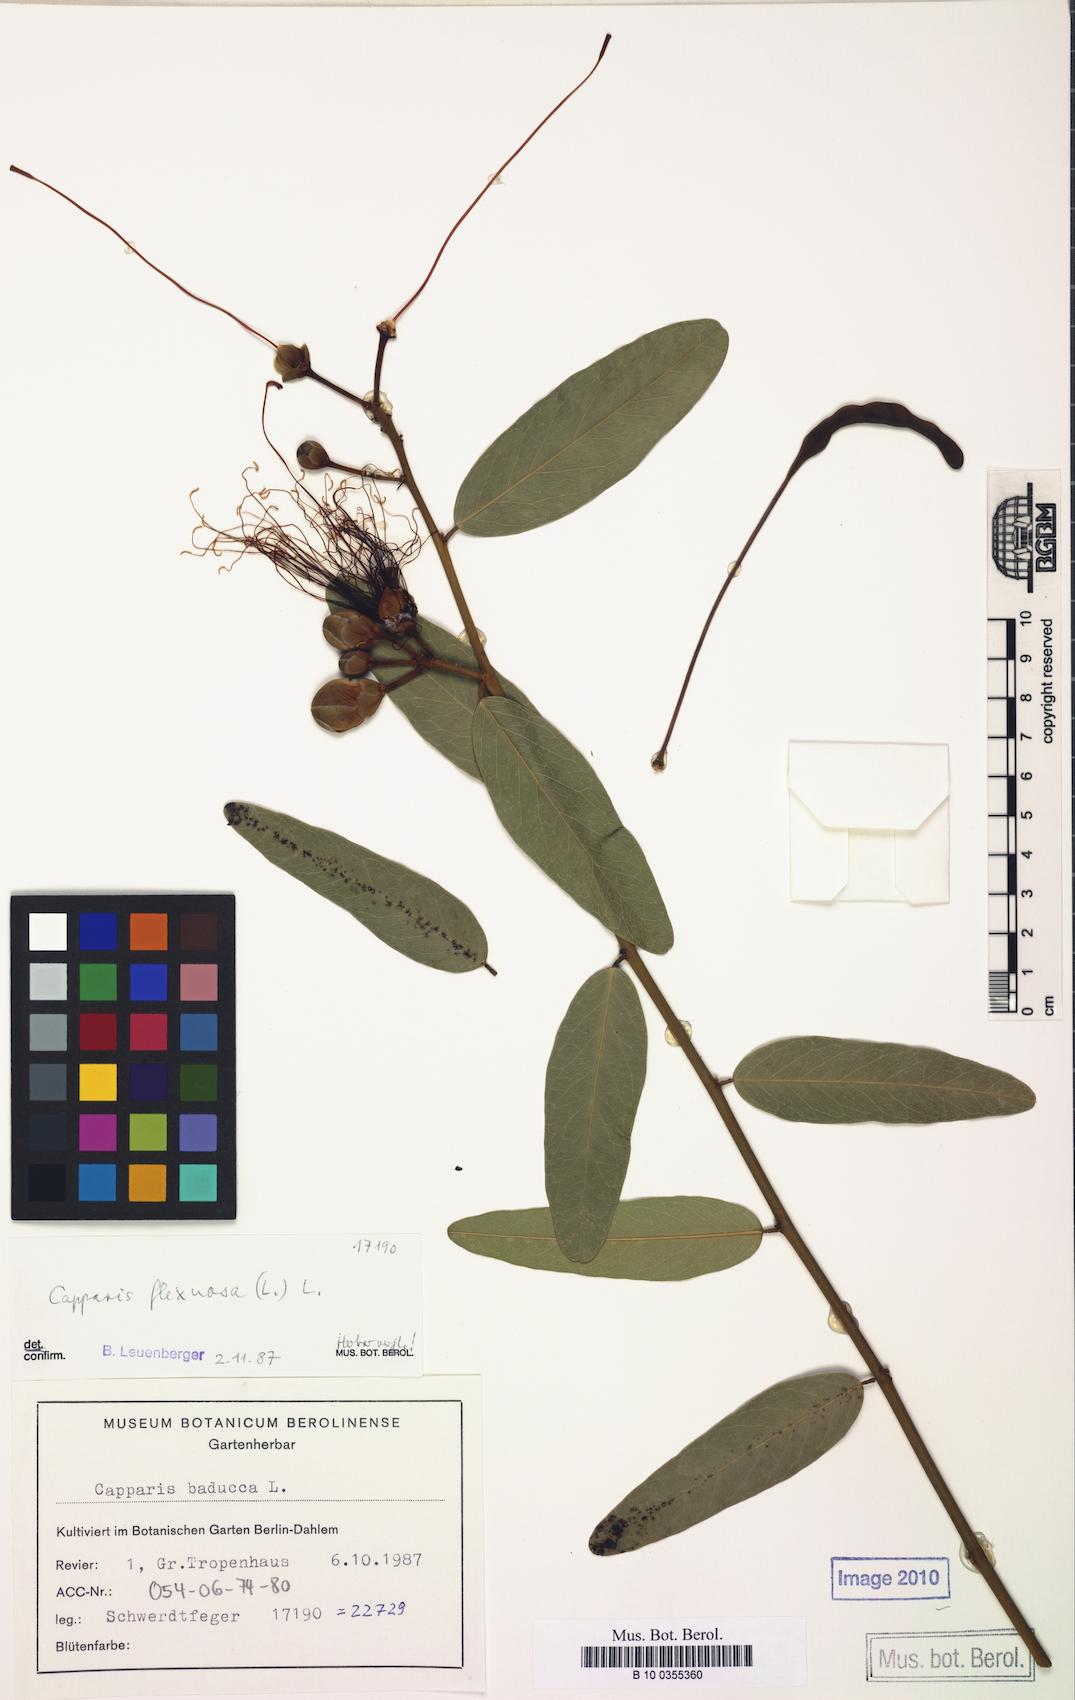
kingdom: Plantae
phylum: Tracheophyta
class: Magnoliopsida
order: Brassicales
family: Capparaceae
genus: Cynophalla
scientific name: Cynophalla flexuosa
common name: Capertree
